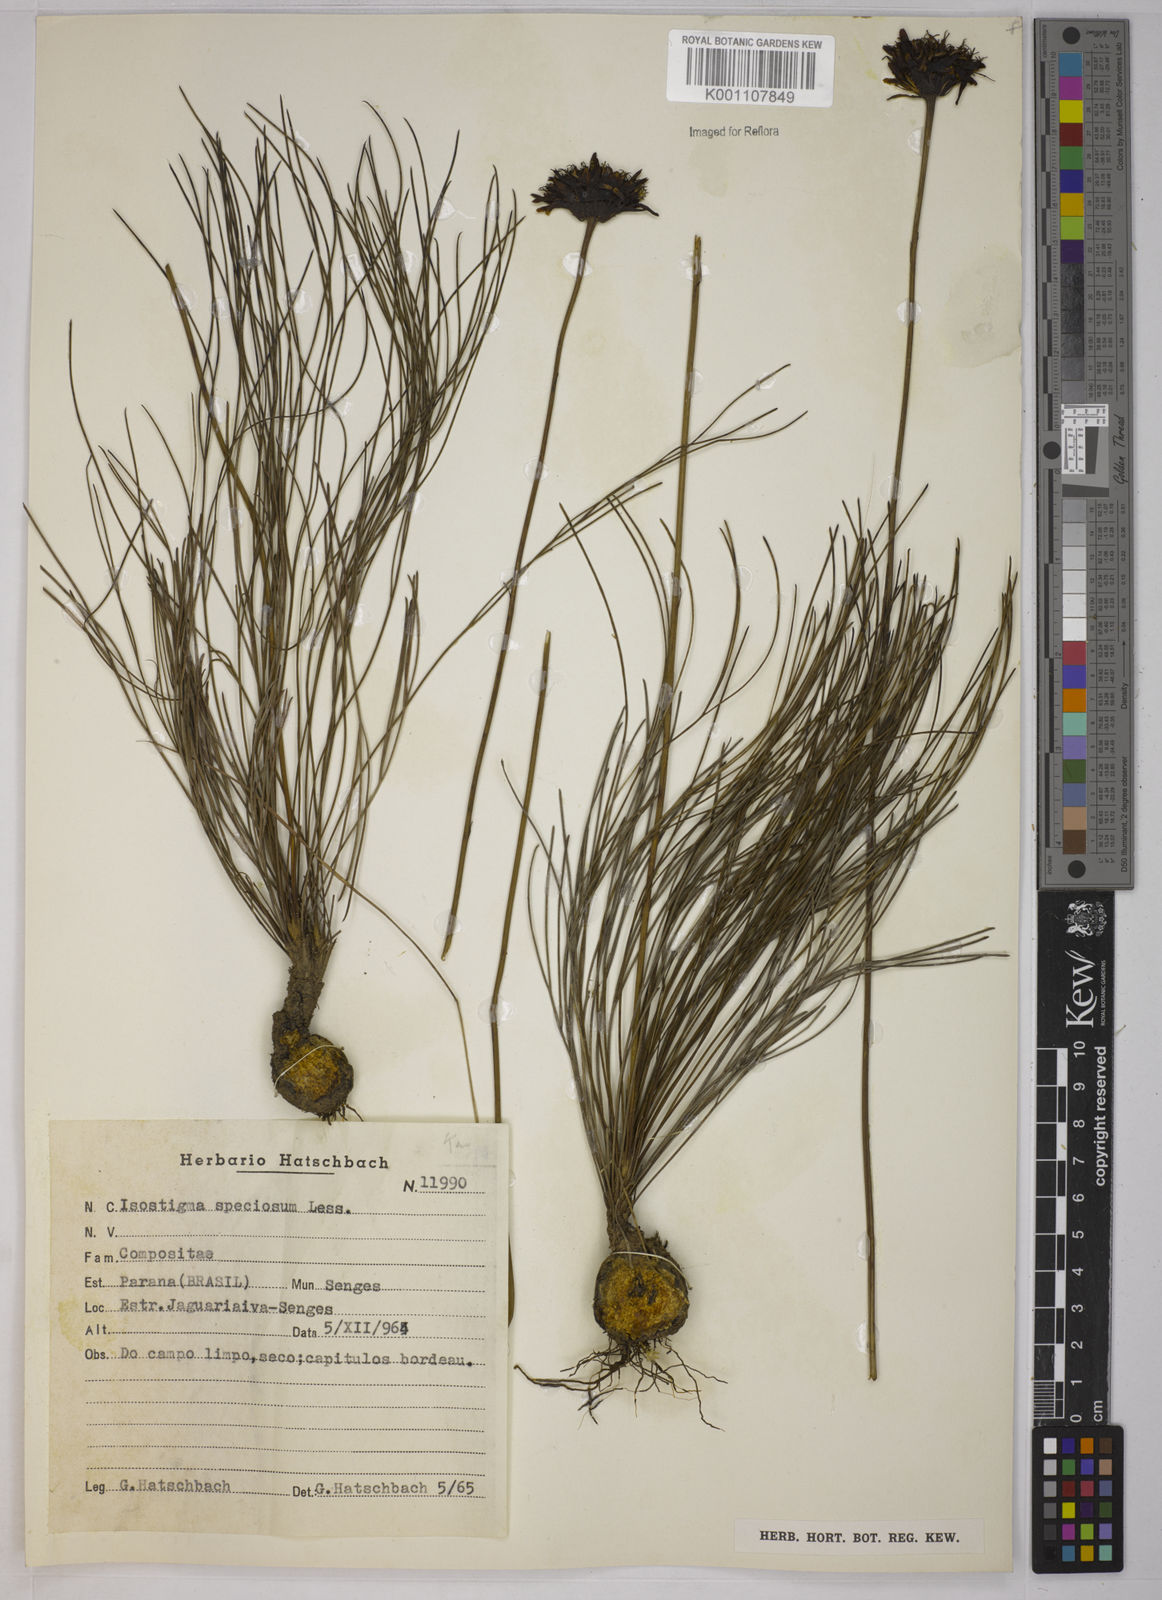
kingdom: Plantae
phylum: Tracheophyta
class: Magnoliopsida
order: Asterales
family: Asteraceae
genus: Isostigma
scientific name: Isostigma
